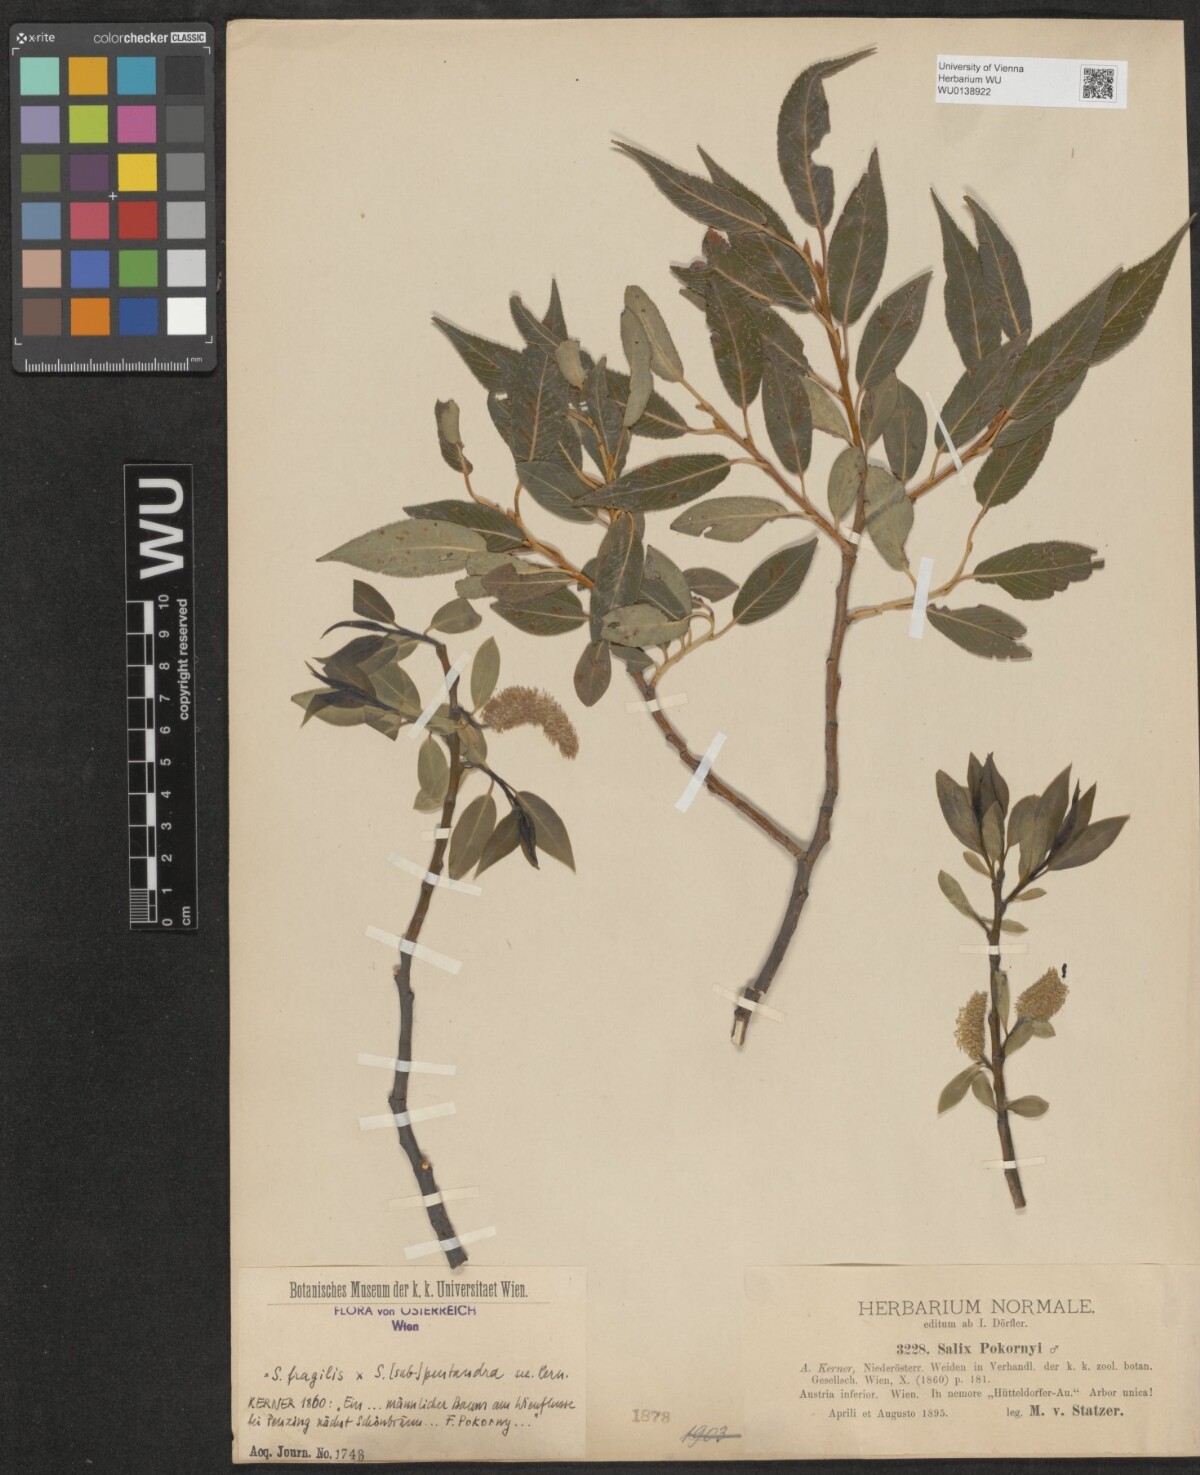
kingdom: Plantae
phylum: Tracheophyta
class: Magnoliopsida
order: Malpighiales
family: Salicaceae
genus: Salix
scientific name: Salix meyeriana
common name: Shiny-leaf willow
